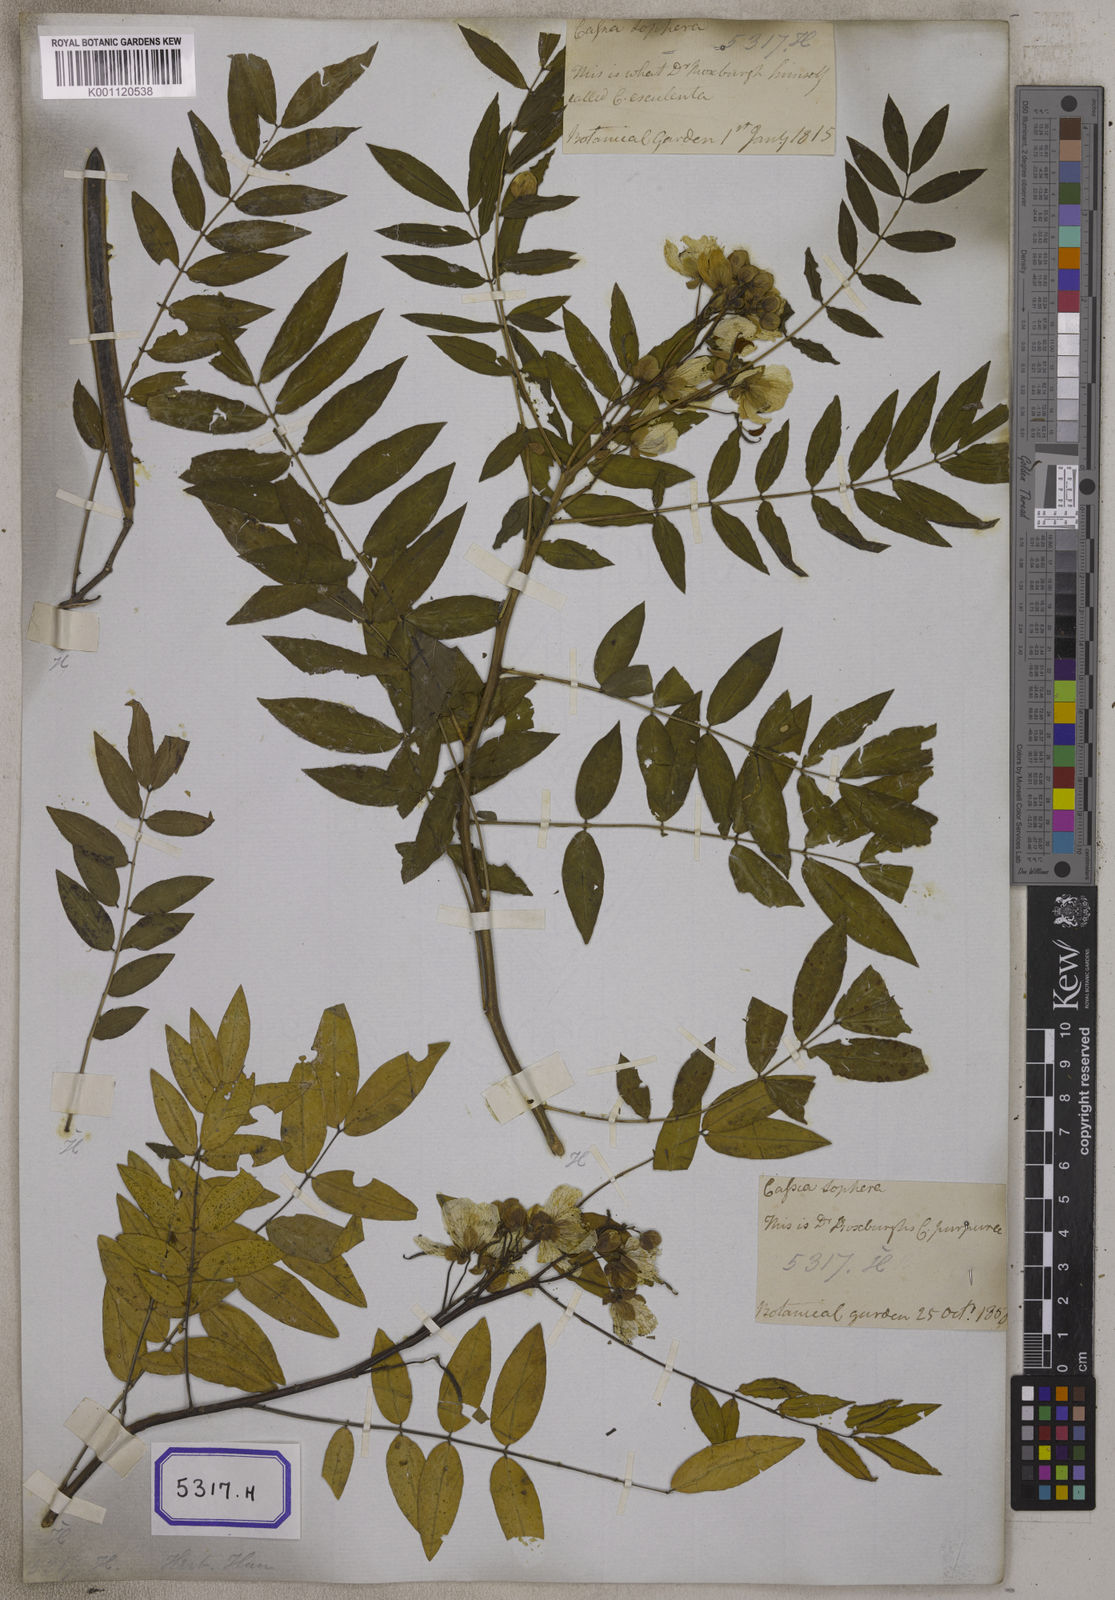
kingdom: Plantae
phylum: Tracheophyta
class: Magnoliopsida
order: Fabales
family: Fabaceae
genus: Cassia
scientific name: Cassia
